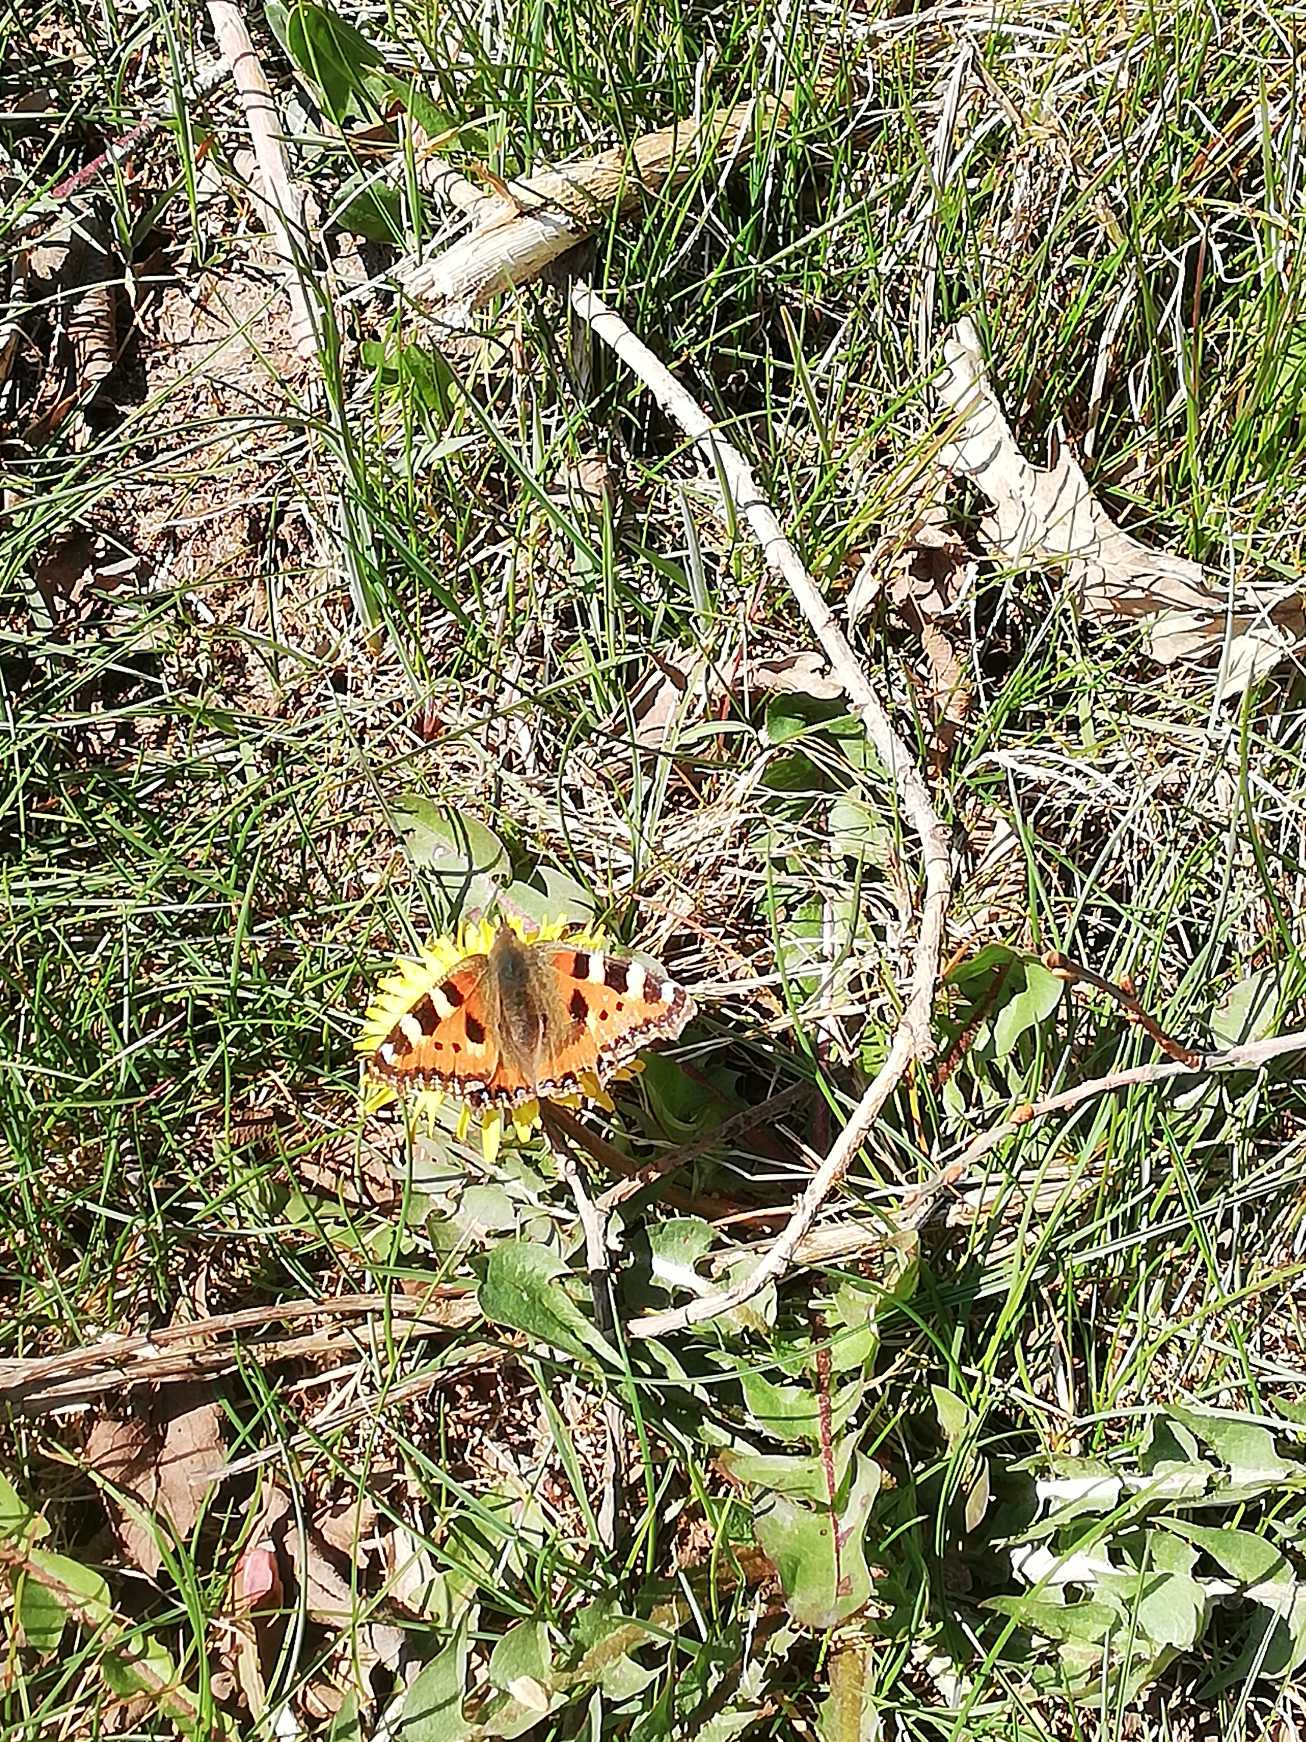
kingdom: Animalia
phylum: Arthropoda
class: Insecta
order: Lepidoptera
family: Nymphalidae
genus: Aglais
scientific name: Aglais urticae
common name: Nældens takvinge
